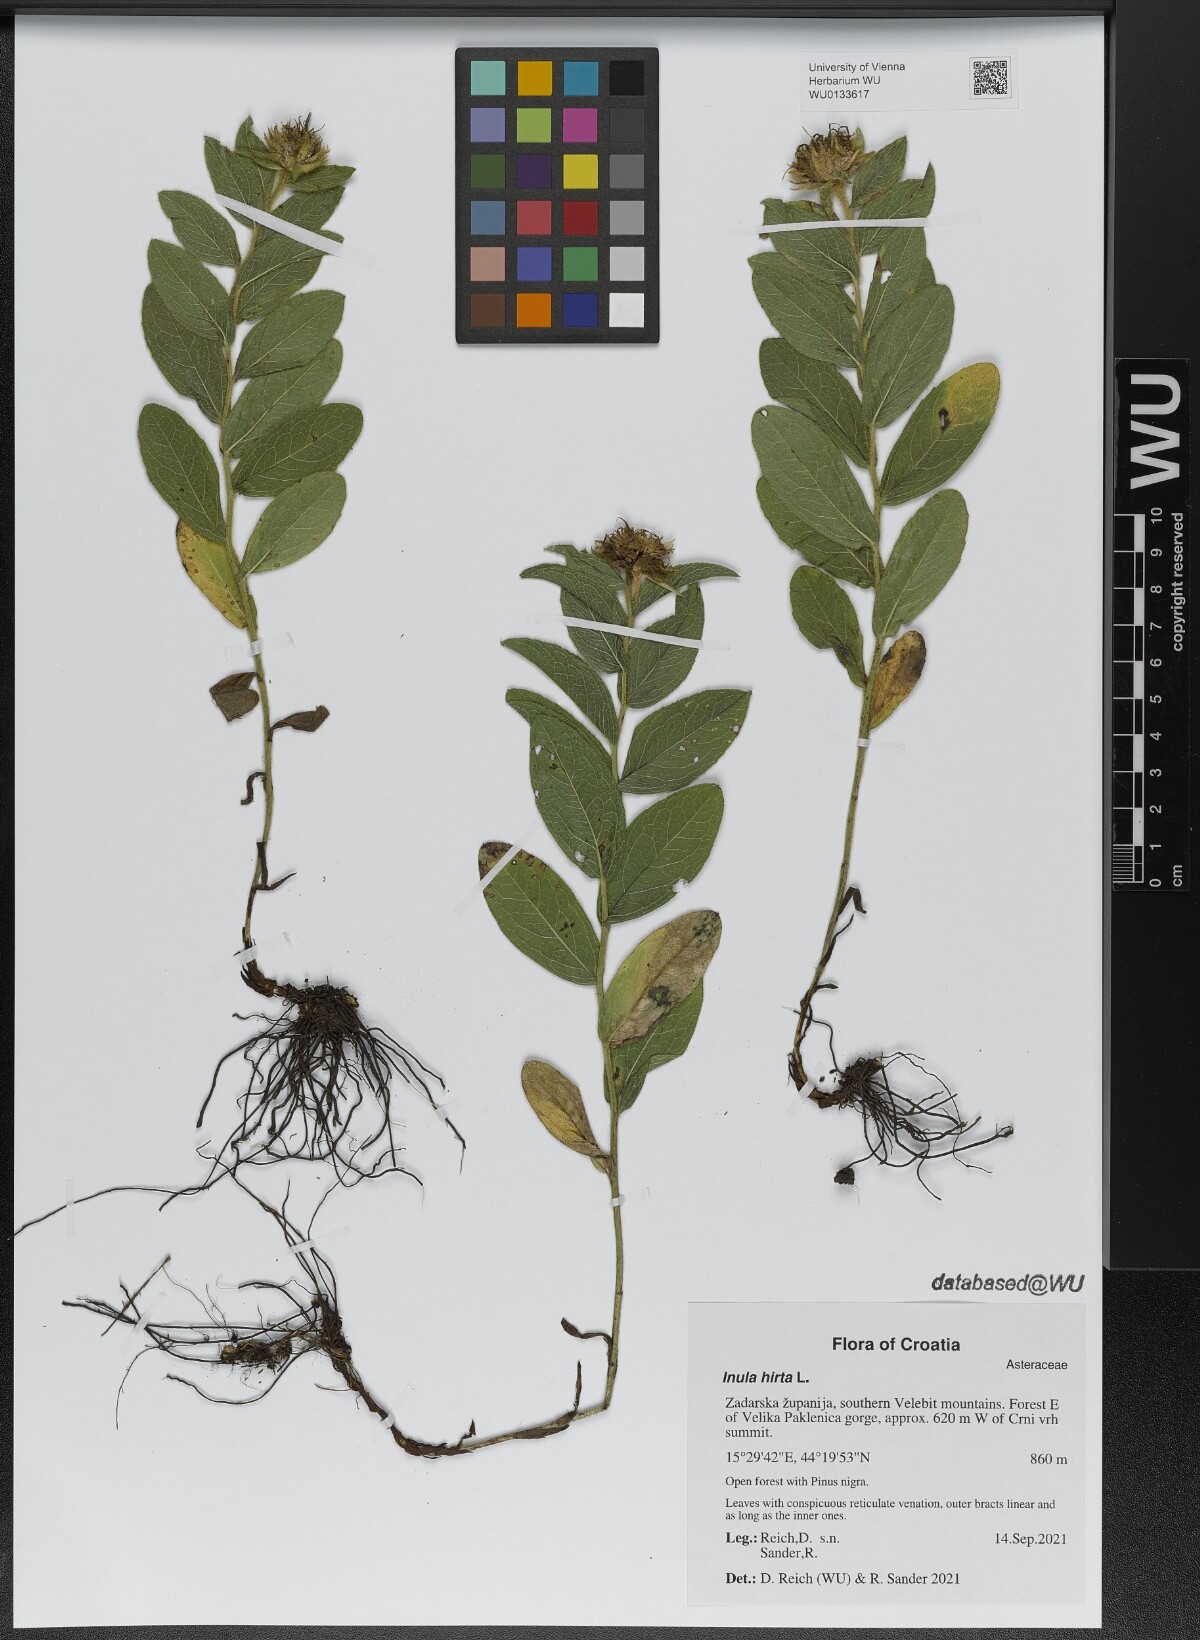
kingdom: Plantae
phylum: Tracheophyta
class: Magnoliopsida
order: Asterales
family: Asteraceae
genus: Pentanema
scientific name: Pentanema hirtum
